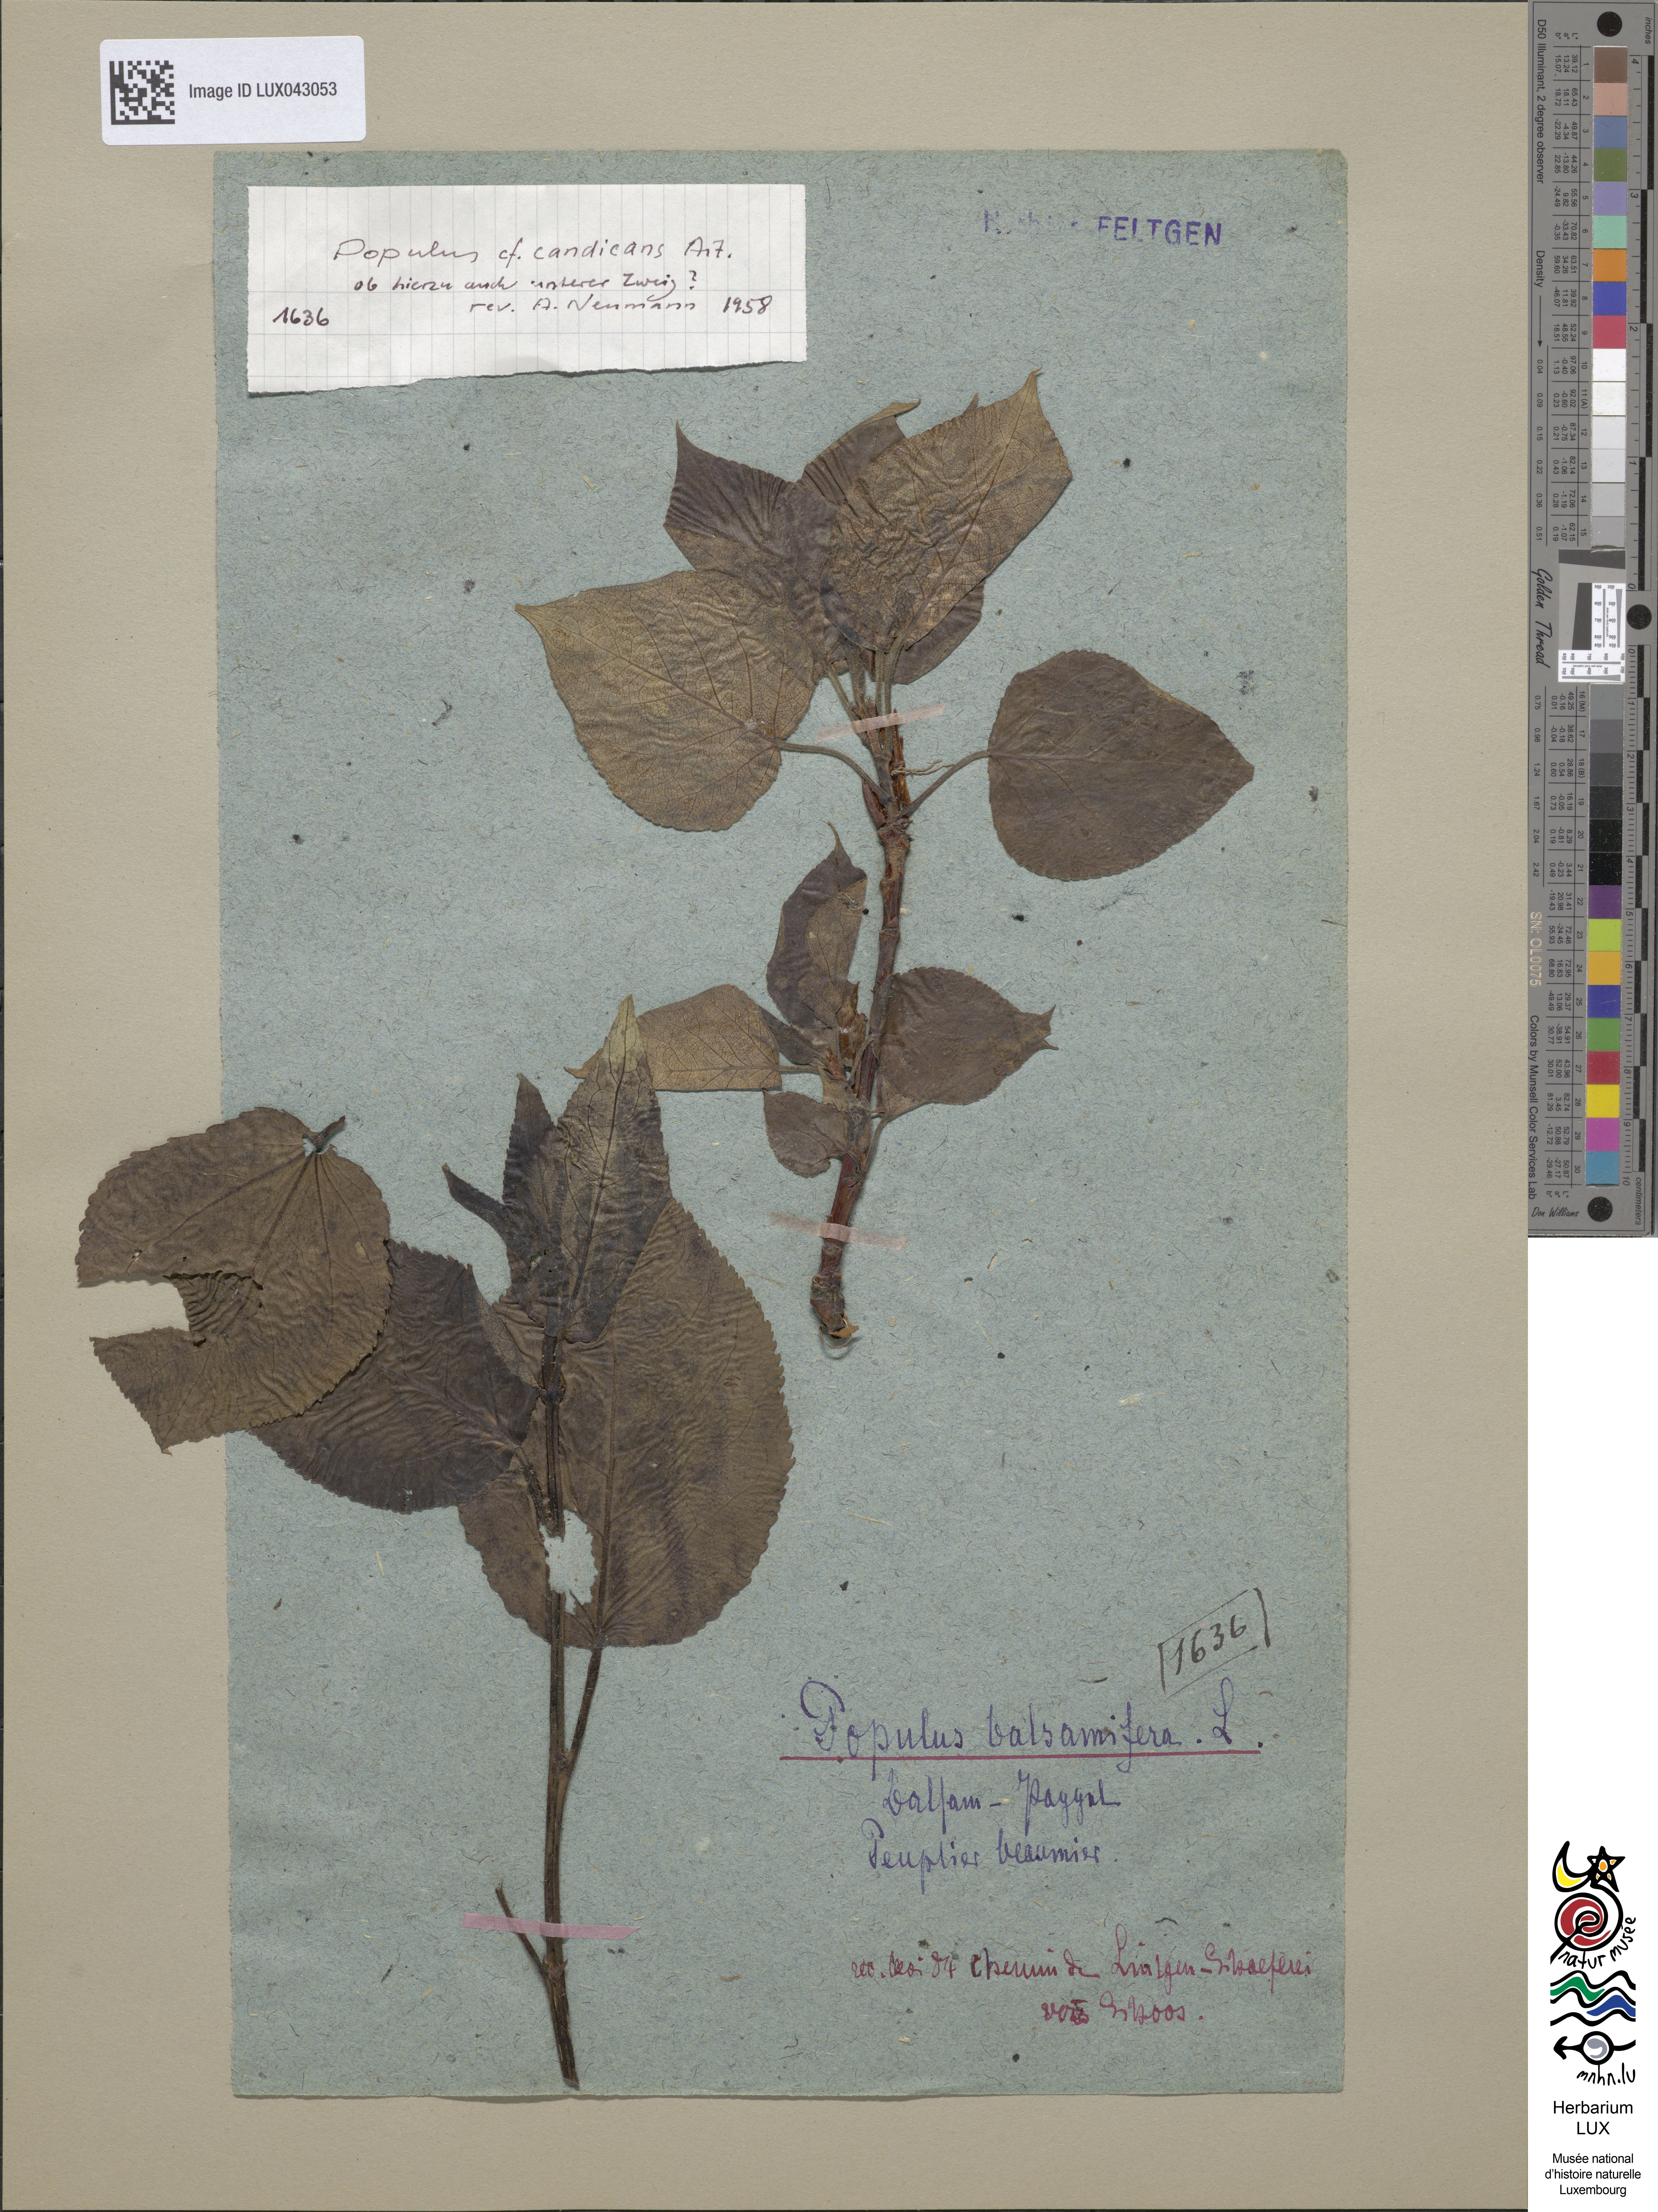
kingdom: Plantae
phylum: Tracheophyta
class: Magnoliopsida
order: Malpighiales
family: Salicaceae
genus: Populus
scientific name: Populus balsamifera
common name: Balsam poplar
